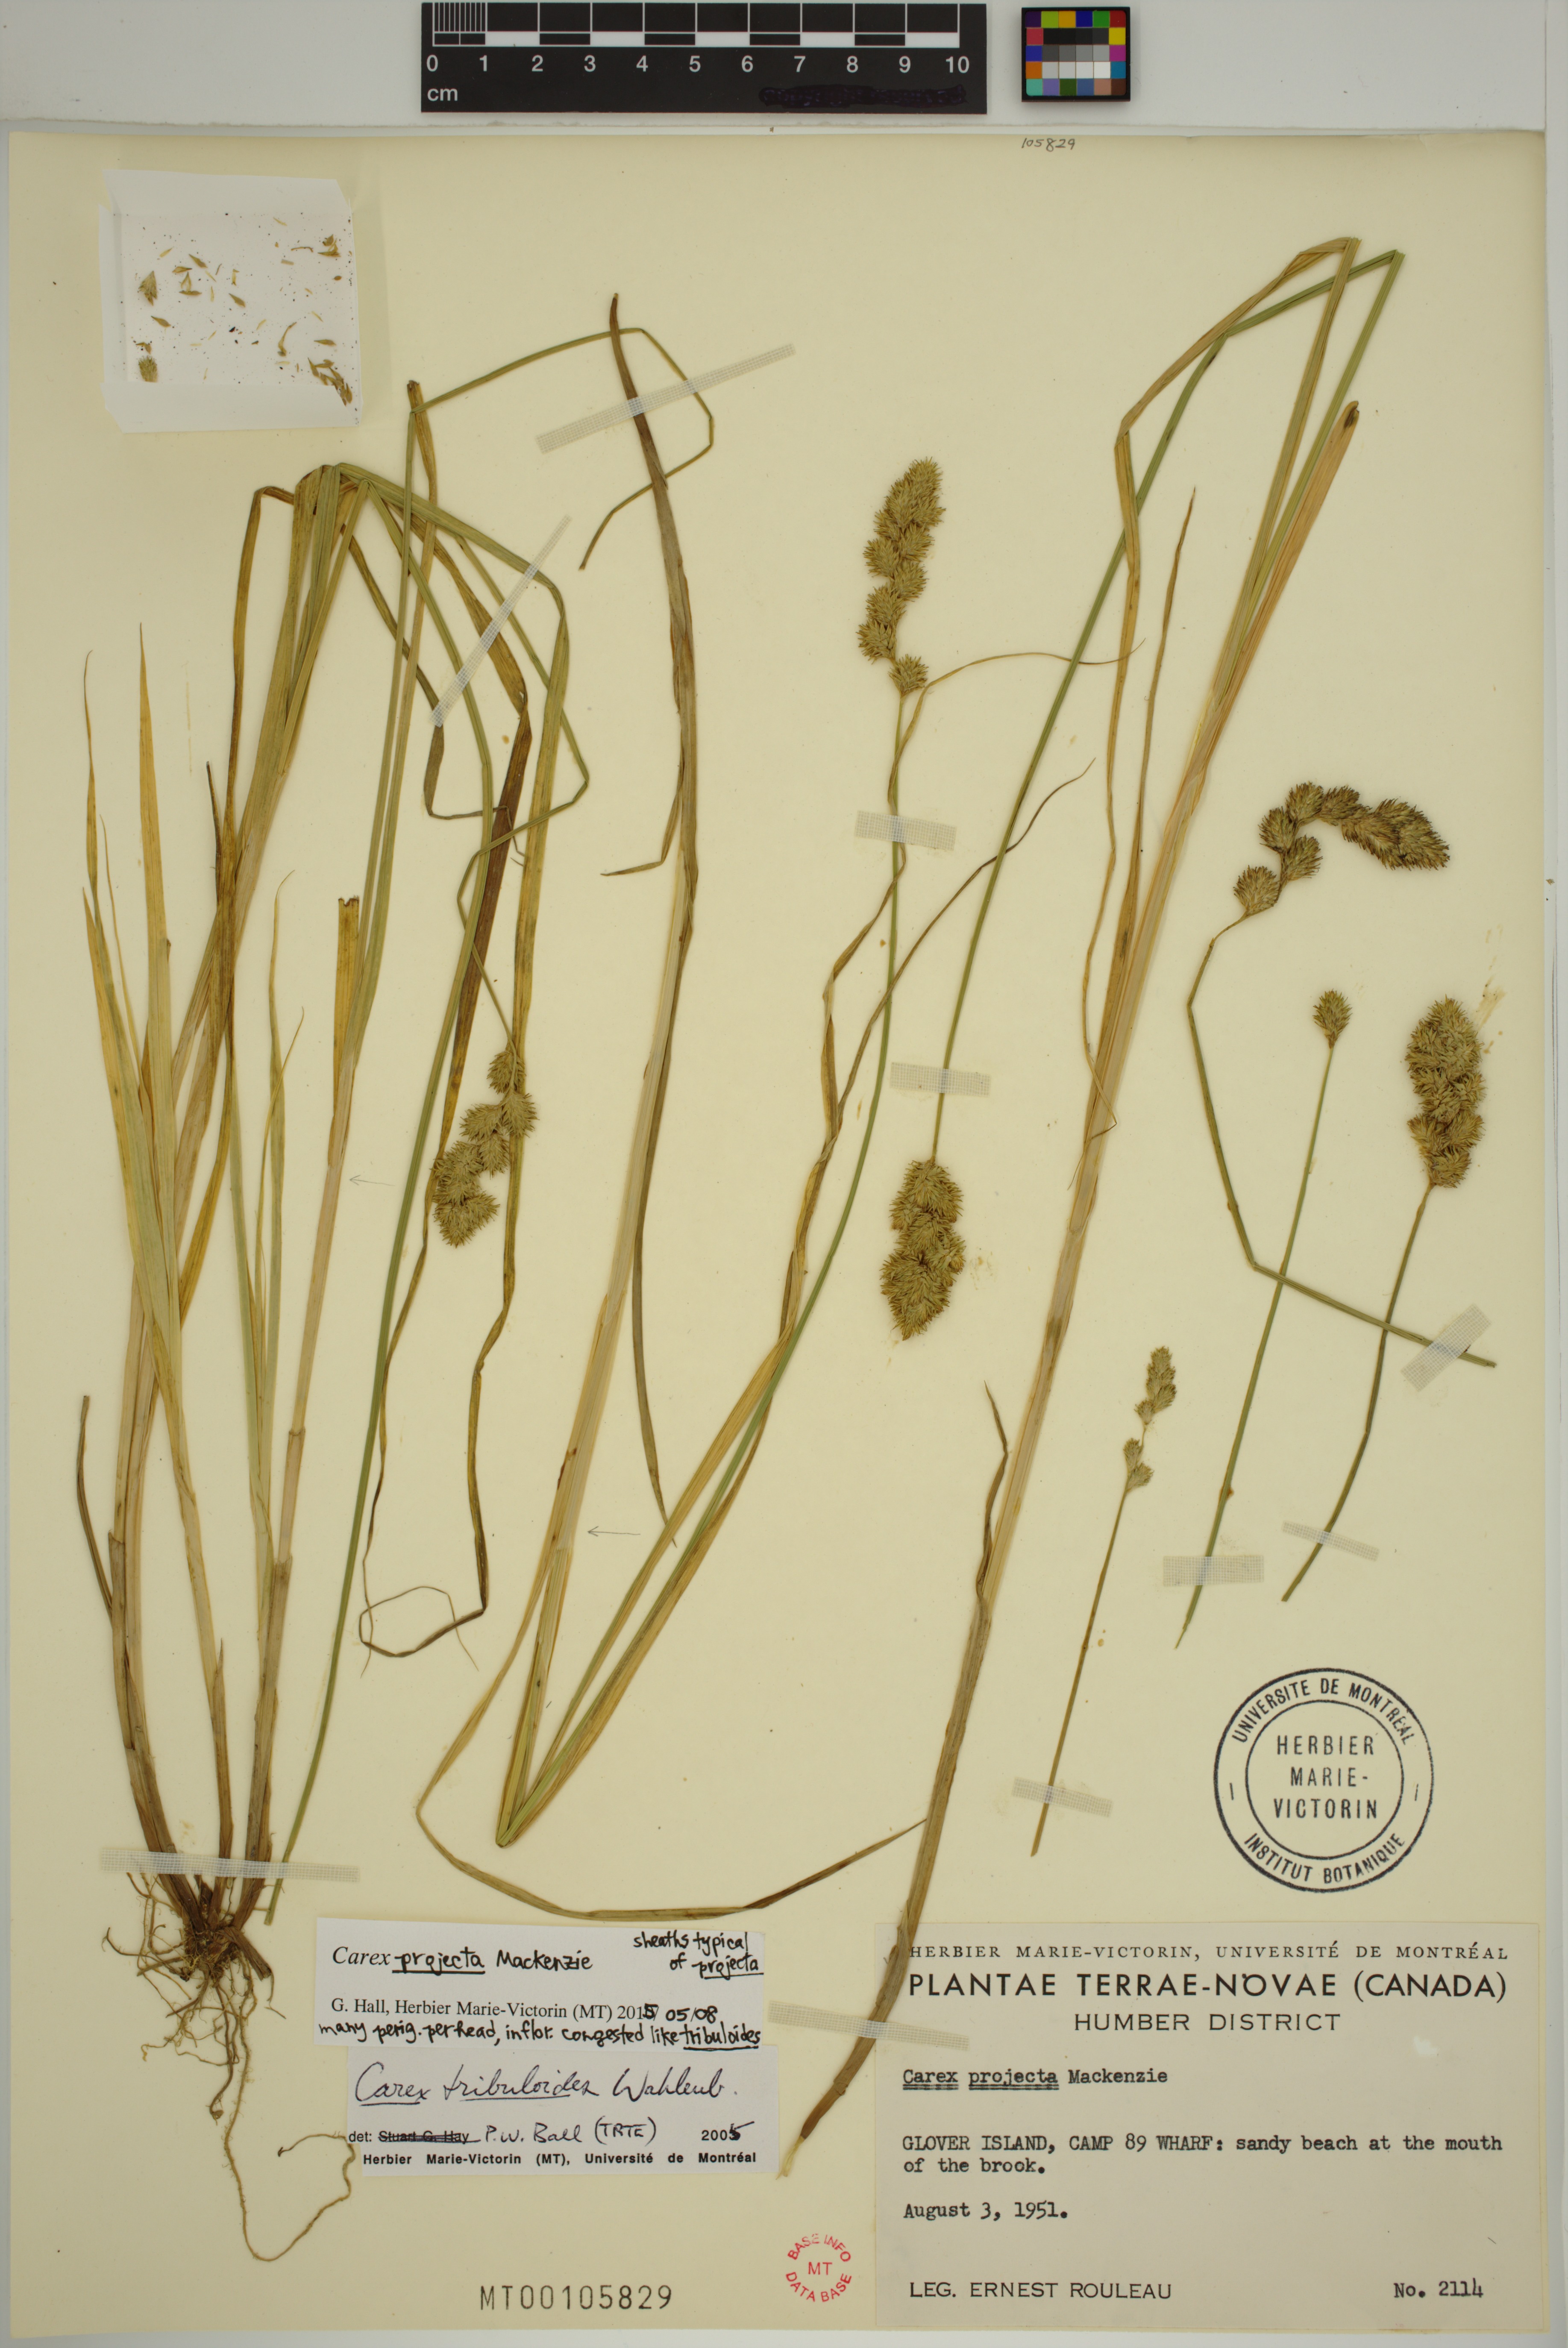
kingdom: Plantae
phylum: Tracheophyta
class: Liliopsida
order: Poales
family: Cyperaceae
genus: Carex
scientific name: Carex projecta
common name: Loose-headed oval sedge
